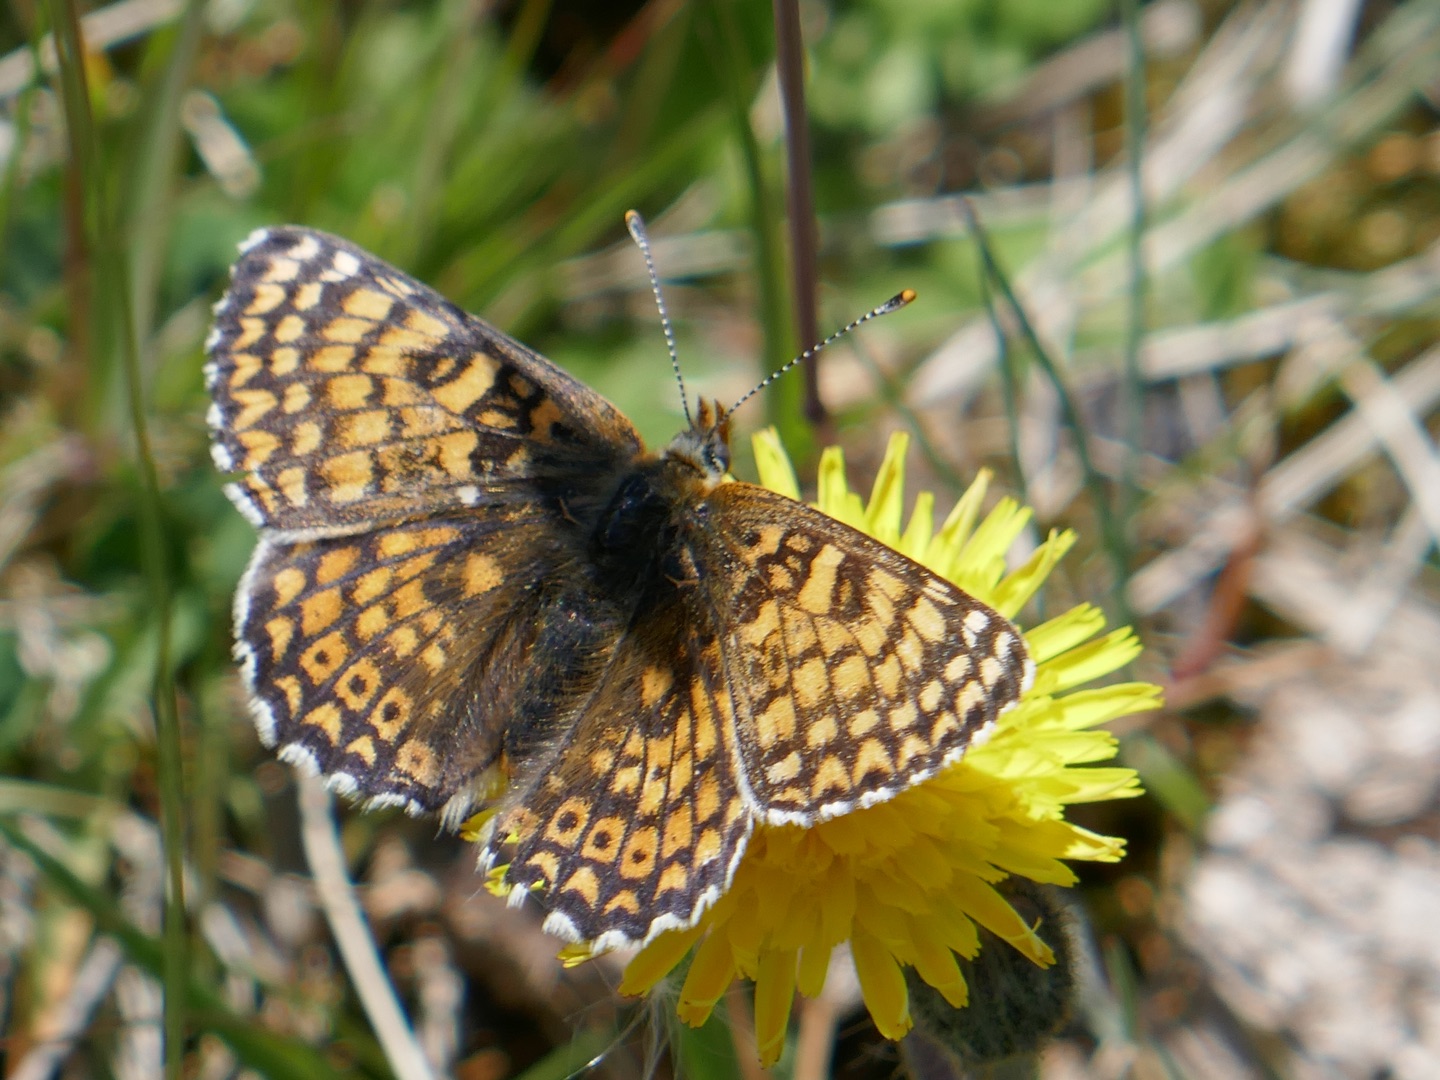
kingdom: Animalia
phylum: Arthropoda
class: Insecta
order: Lepidoptera
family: Nymphalidae
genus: Melitaea
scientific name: Melitaea cinxia
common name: Okkergul pletvinge
